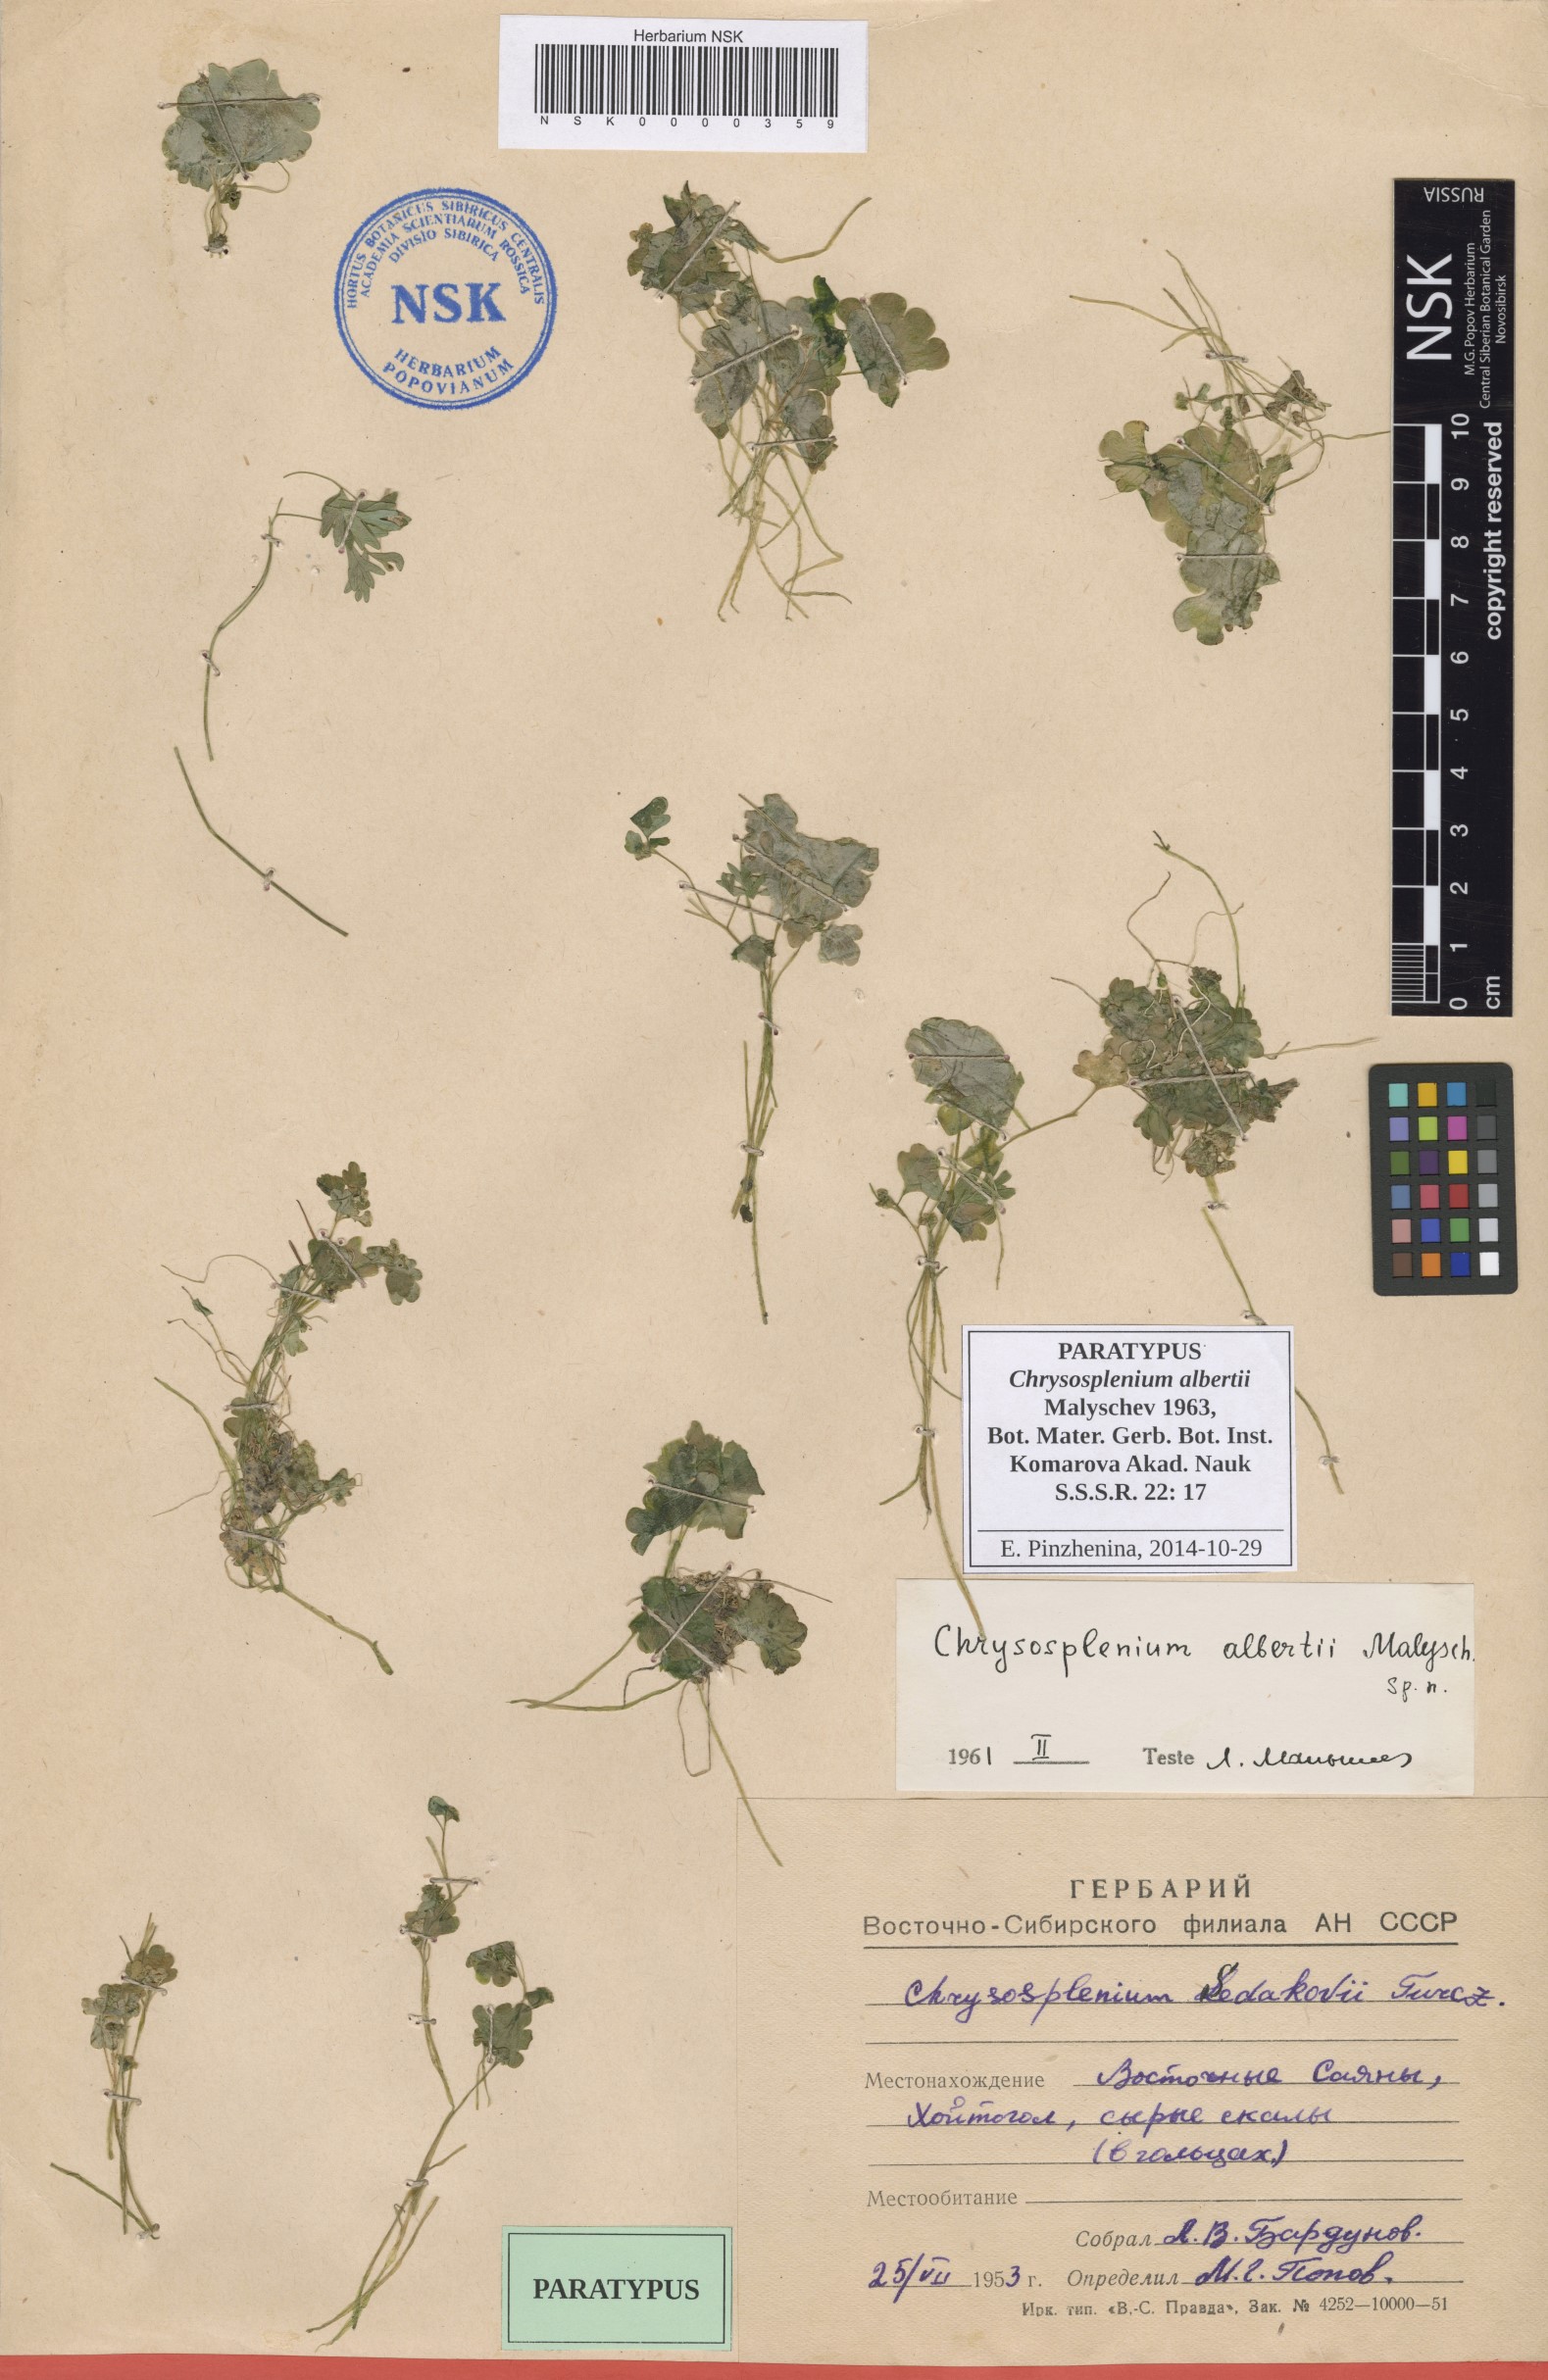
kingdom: Plantae
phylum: Tracheophyta
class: Magnoliopsida
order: Saxifragales
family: Saxifragaceae
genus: Chrysosplenium
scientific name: Chrysosplenium albertii
